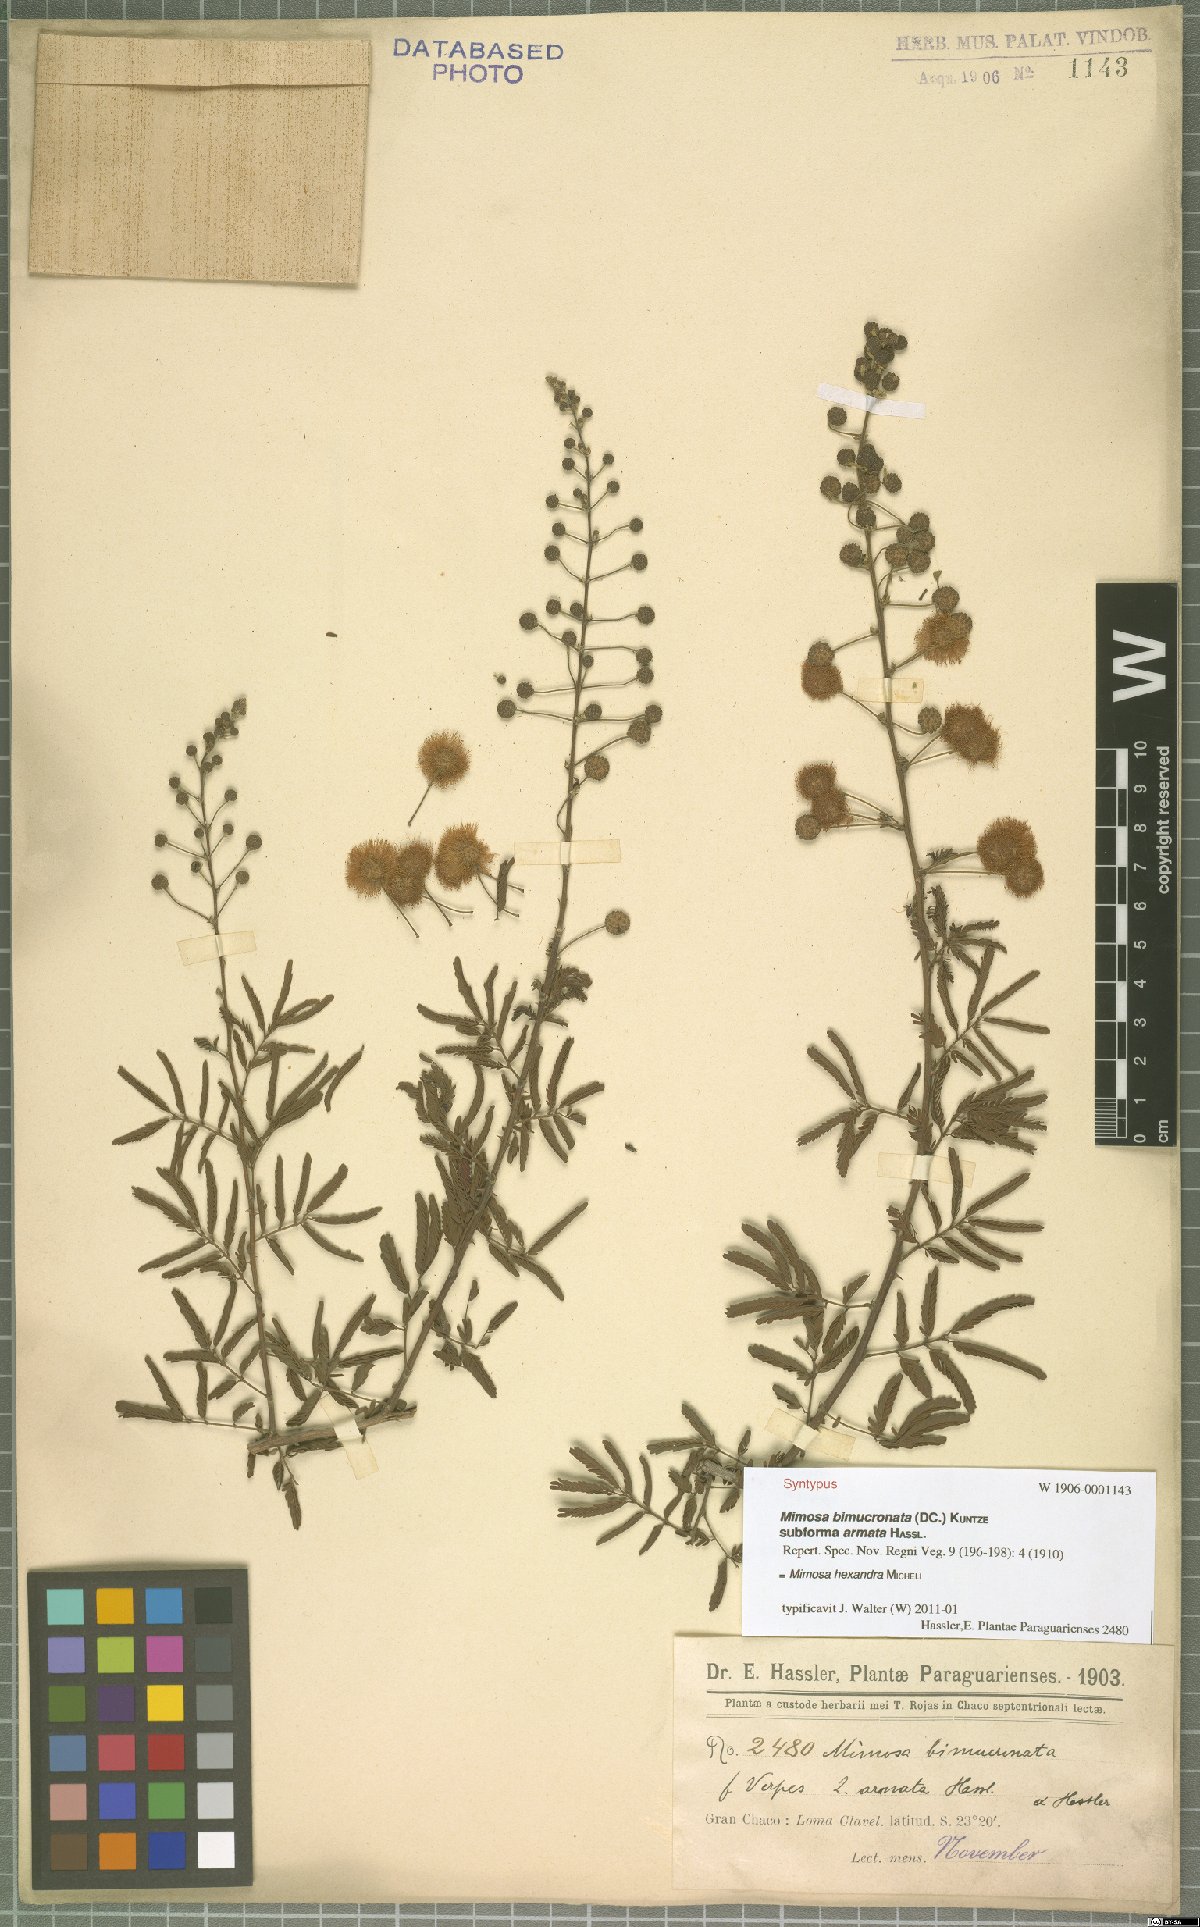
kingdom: Plantae
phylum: Tracheophyta
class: Magnoliopsida
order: Fabales
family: Fabaceae
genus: Mimosa
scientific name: Mimosa hexandra
